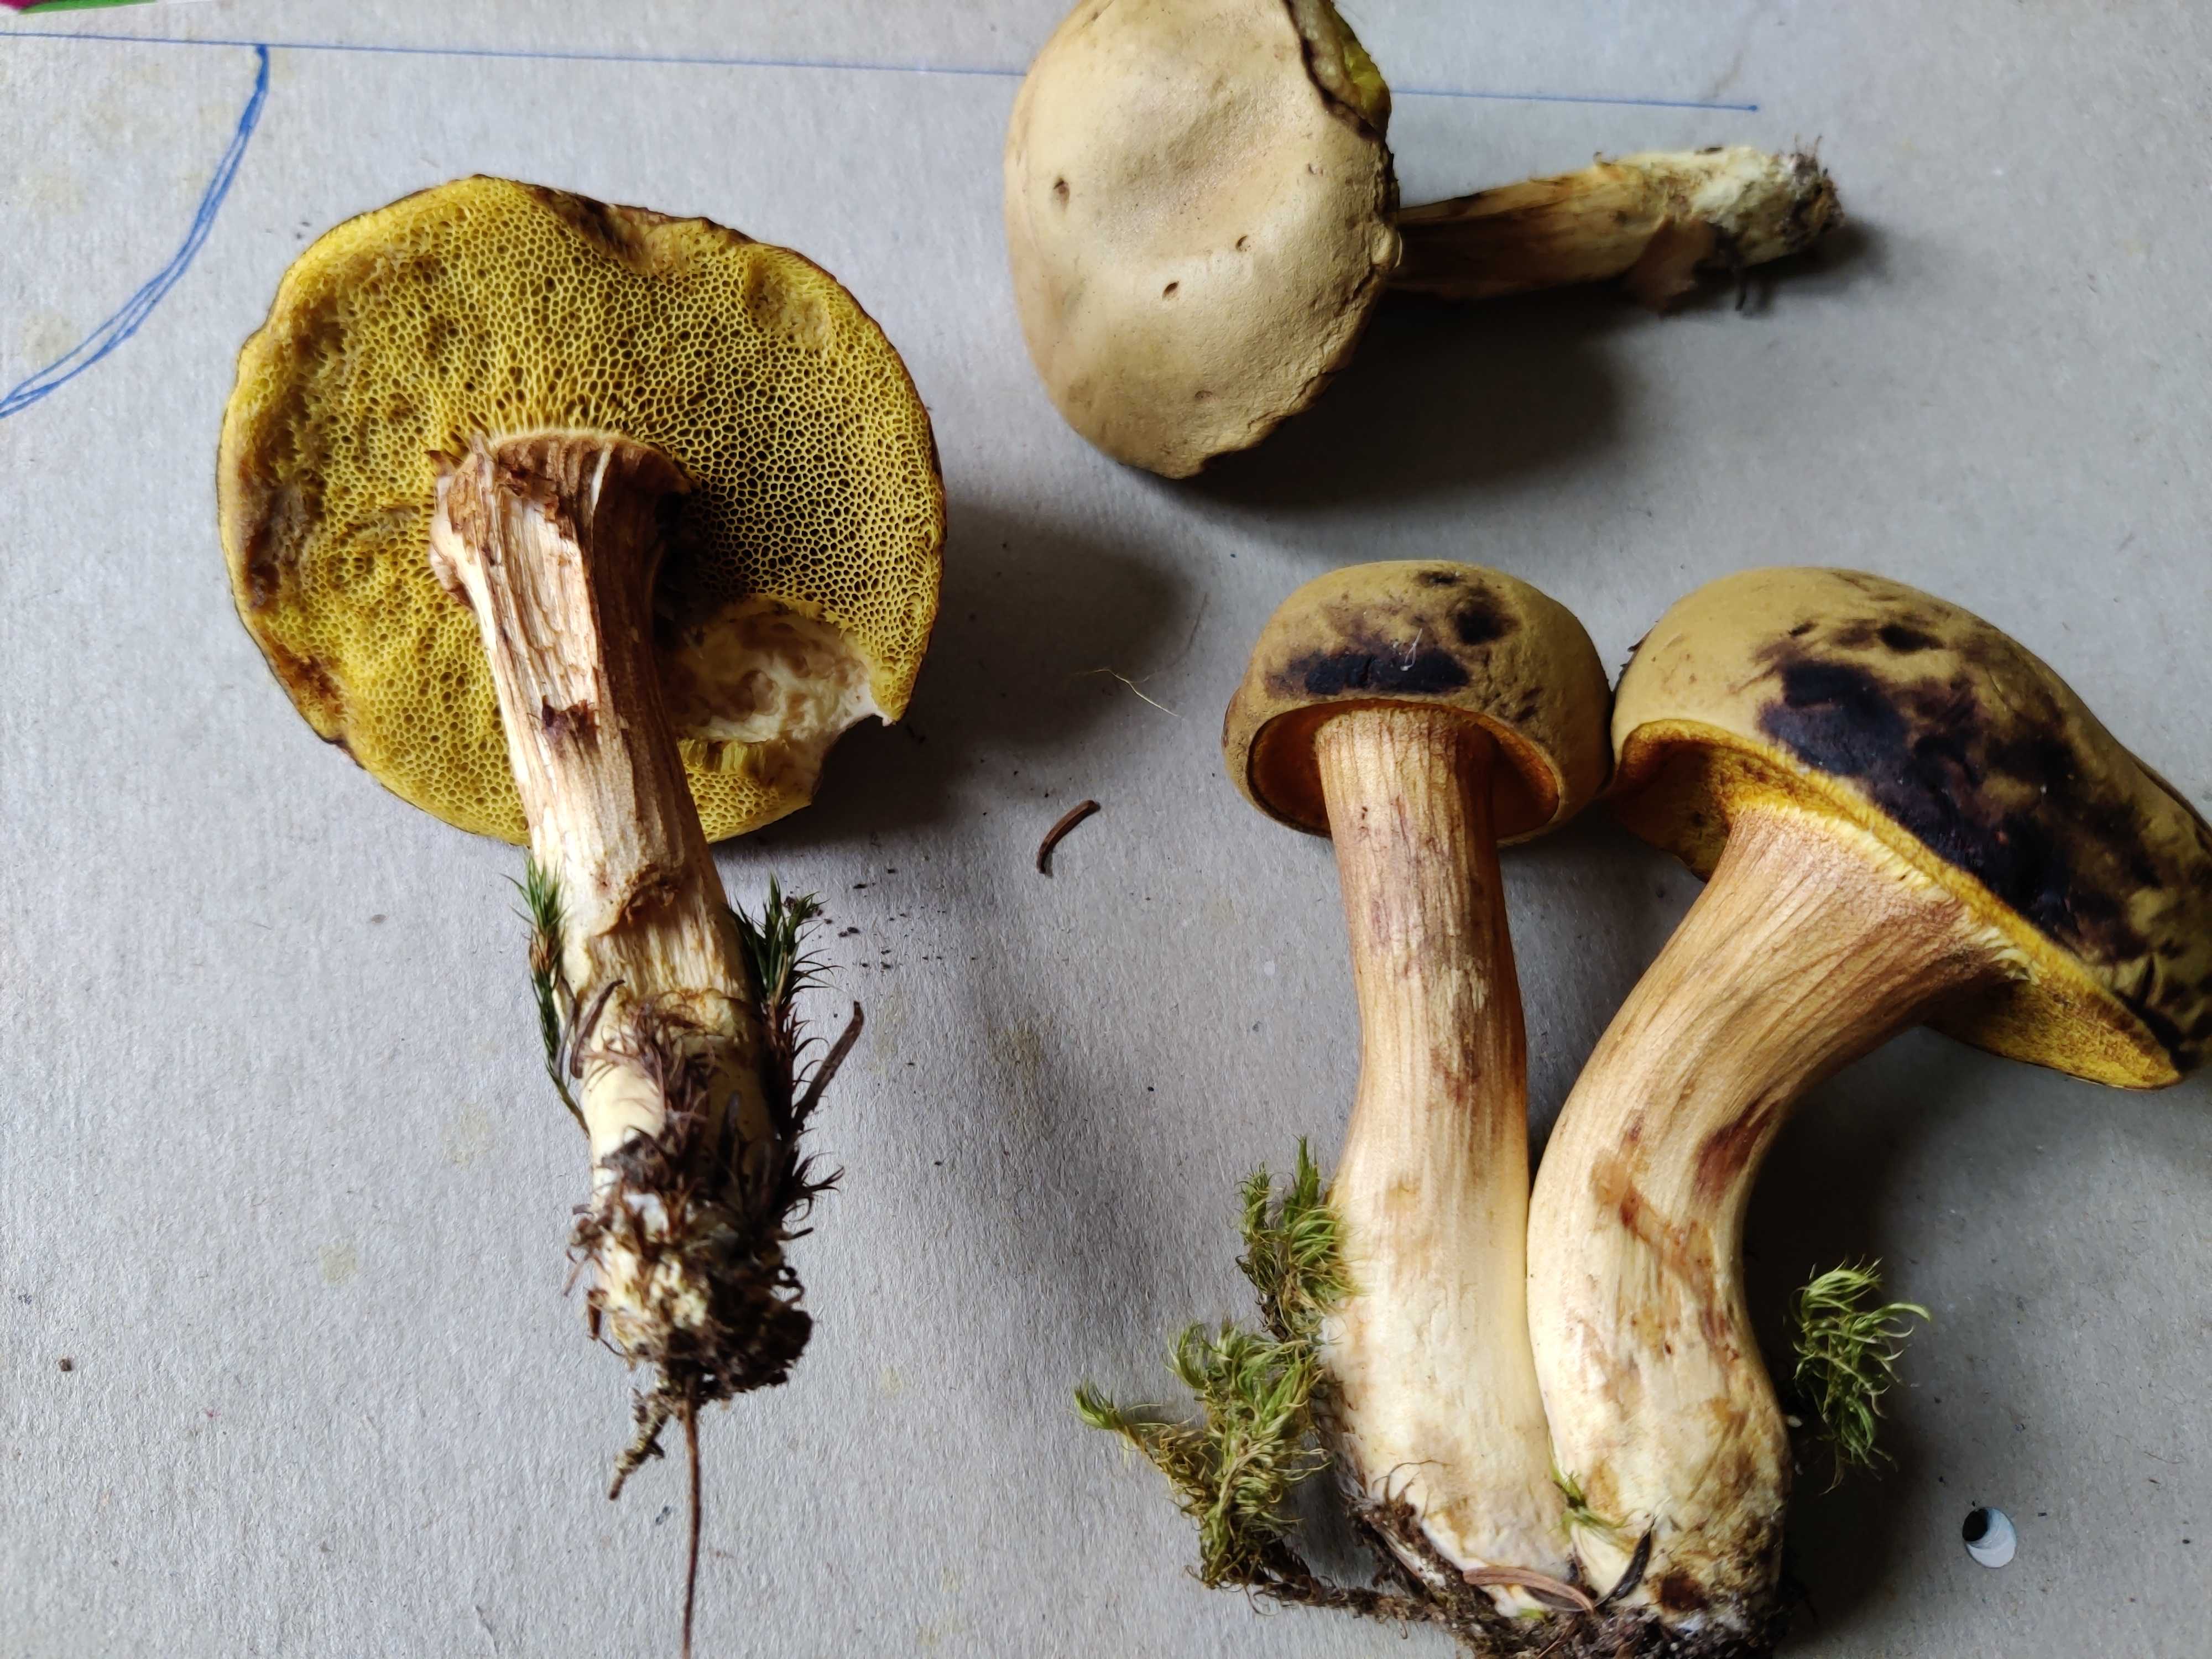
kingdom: Fungi
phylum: Basidiomycota
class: Agaricomycetes
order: Boletales
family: Boletaceae
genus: Xerocomus
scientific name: Xerocomus
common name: filtrørhat
